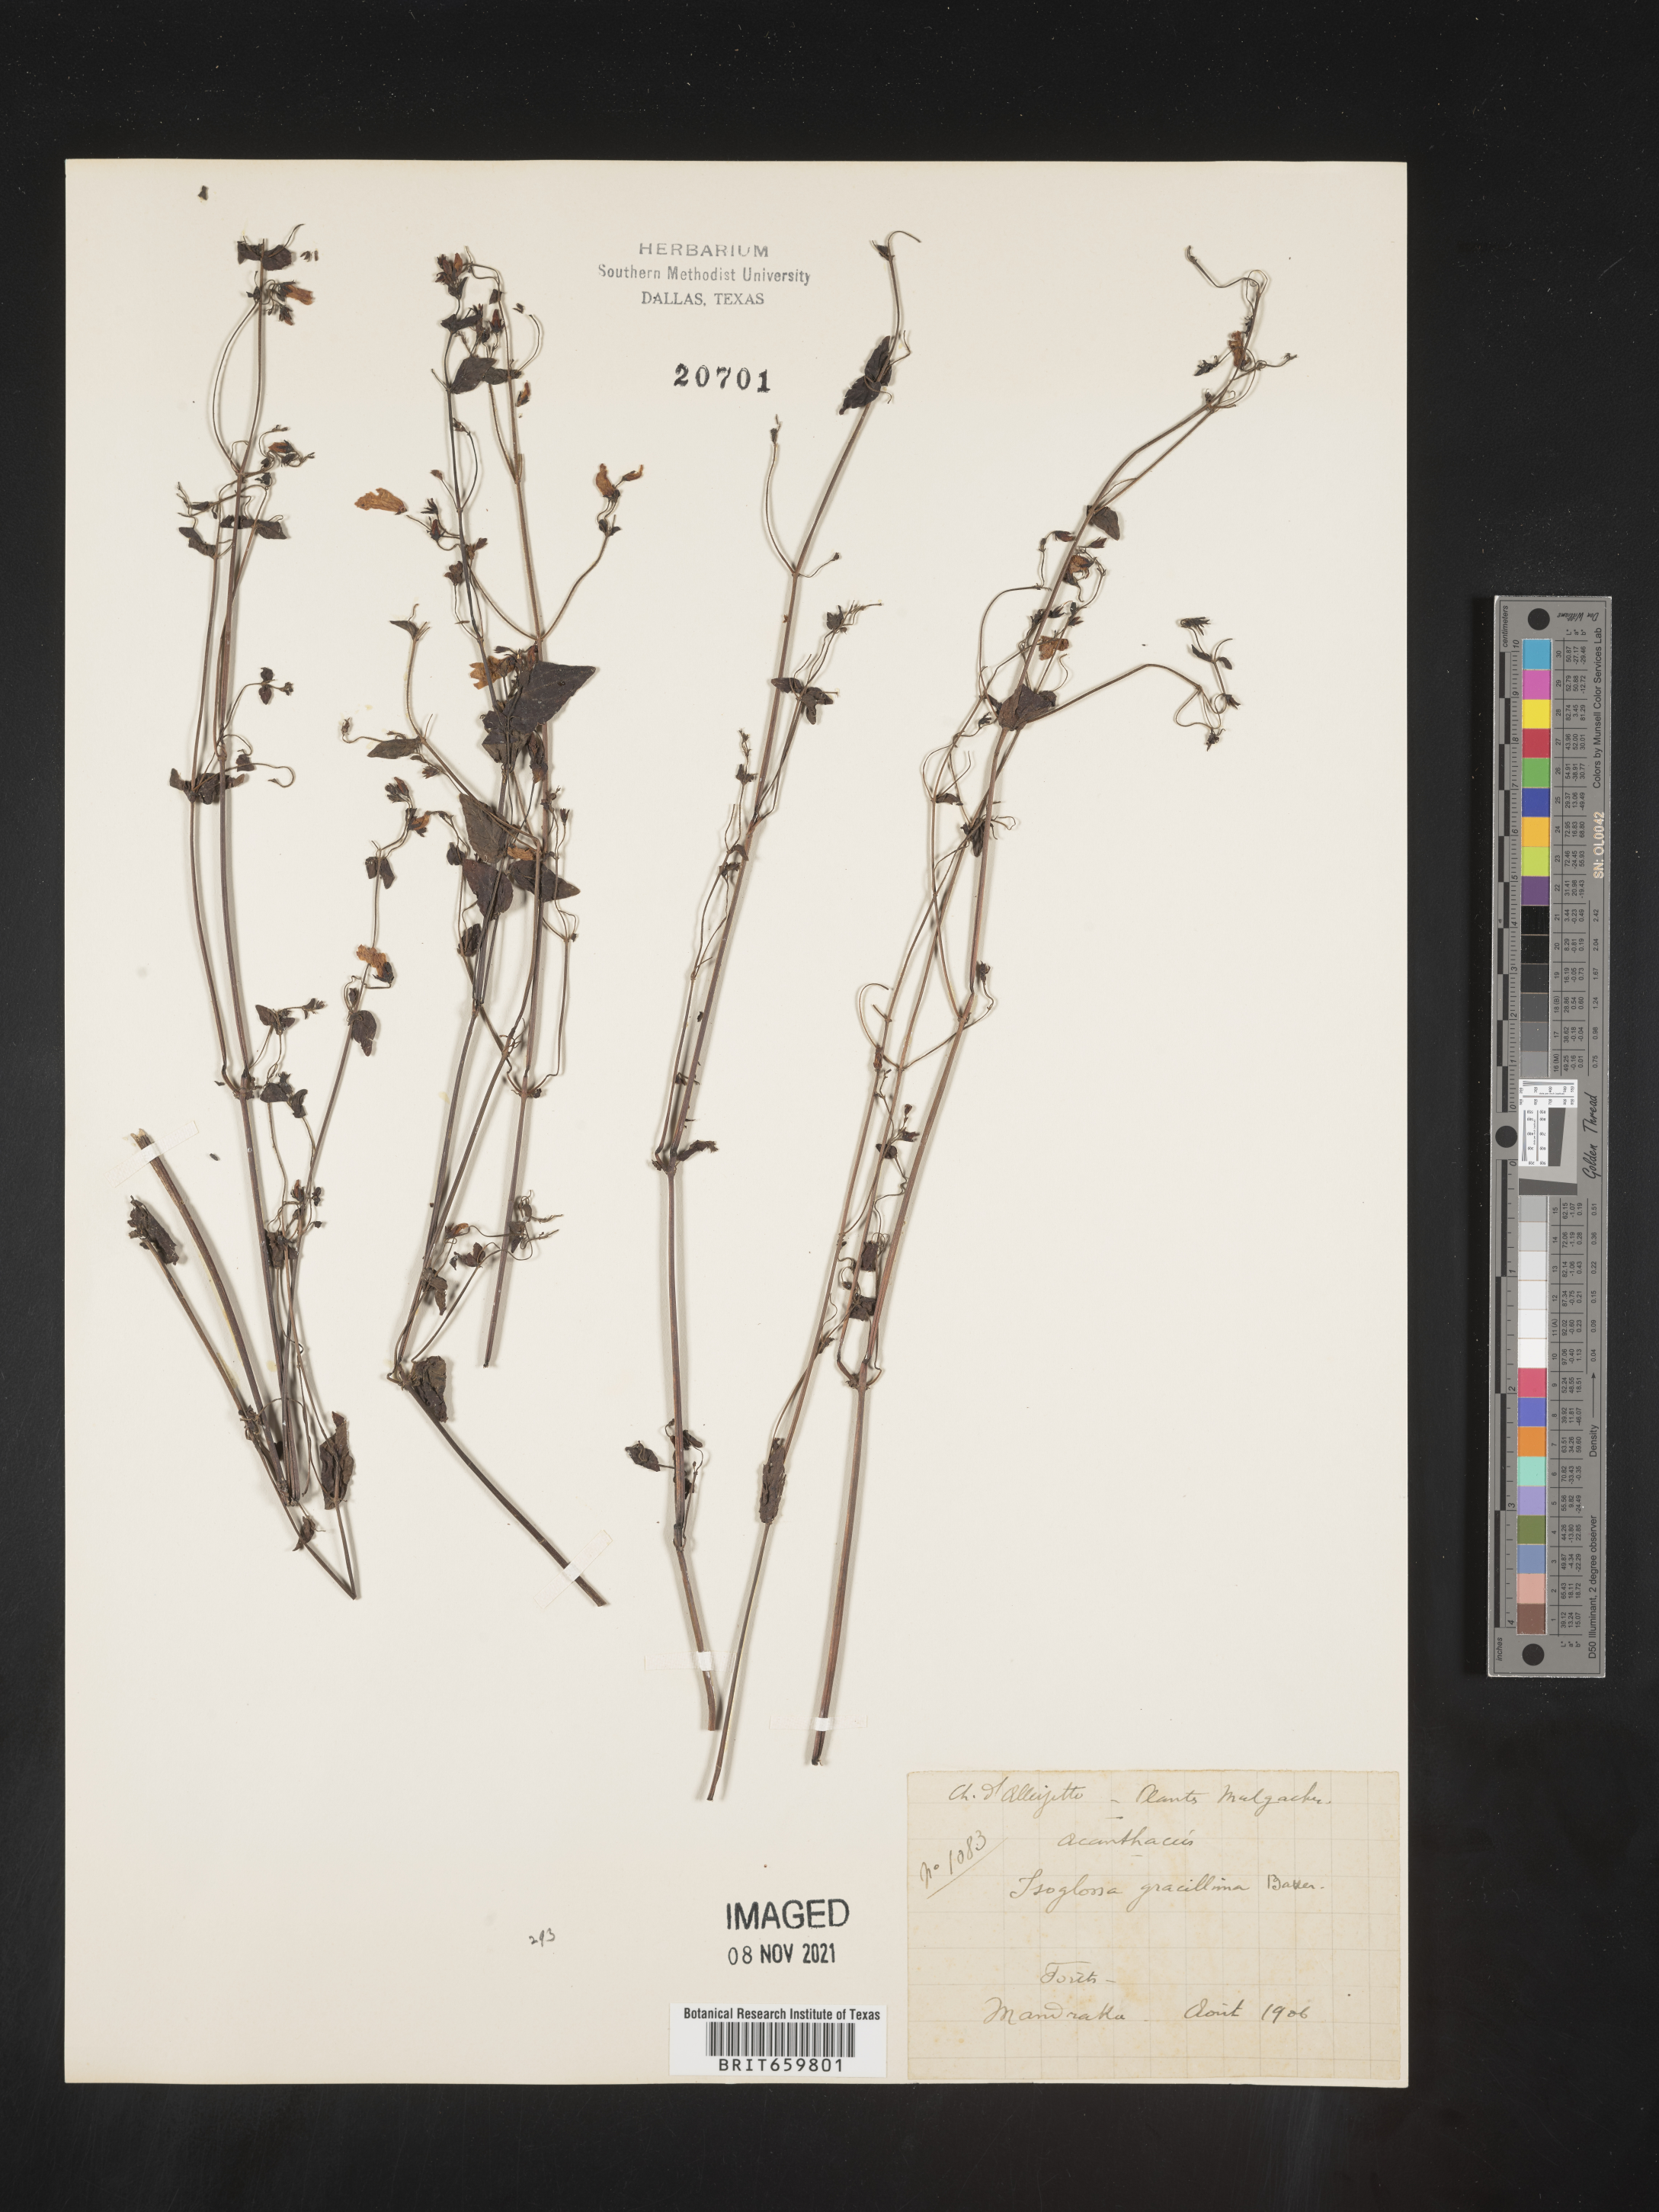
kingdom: Plantae
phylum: Tracheophyta
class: Magnoliopsida
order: Lamiales
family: Acanthaceae
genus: Isoglossa
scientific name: Isoglossa gracillima
